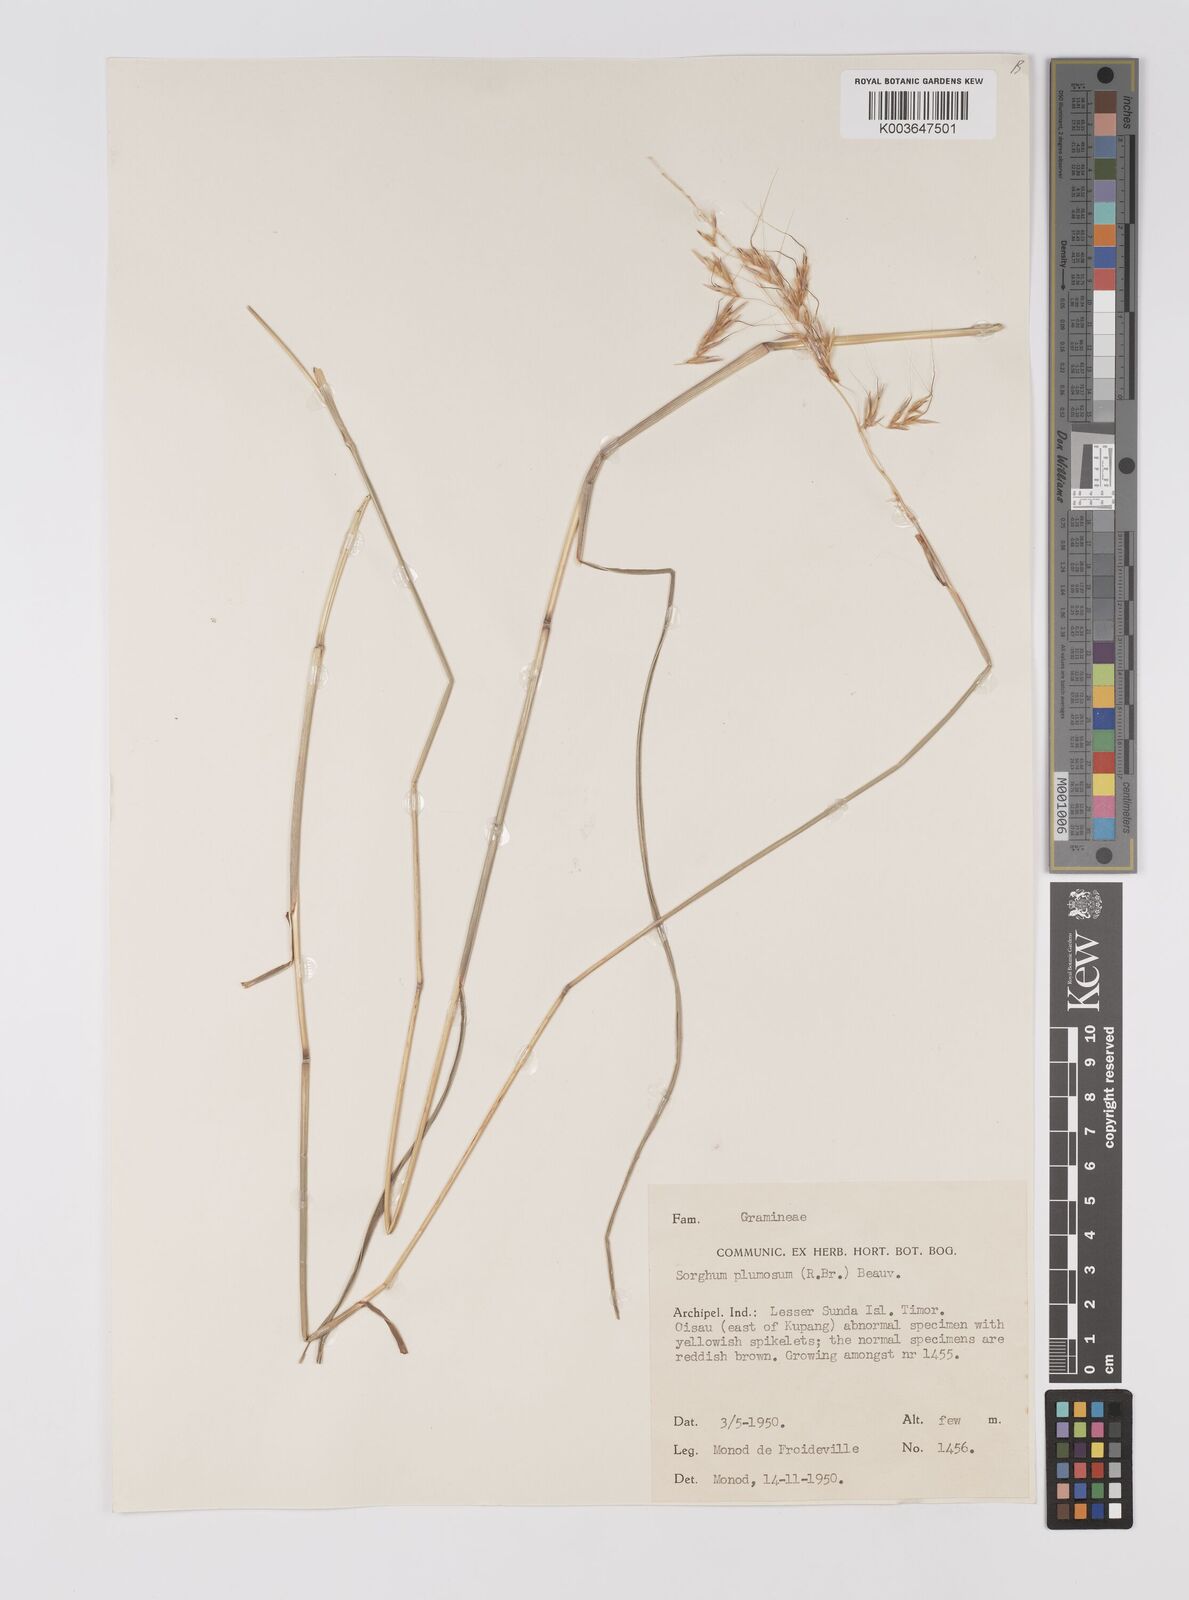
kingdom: Plantae
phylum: Tracheophyta
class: Liliopsida
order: Poales
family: Poaceae
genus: Sarga
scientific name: Sarga timorensis
